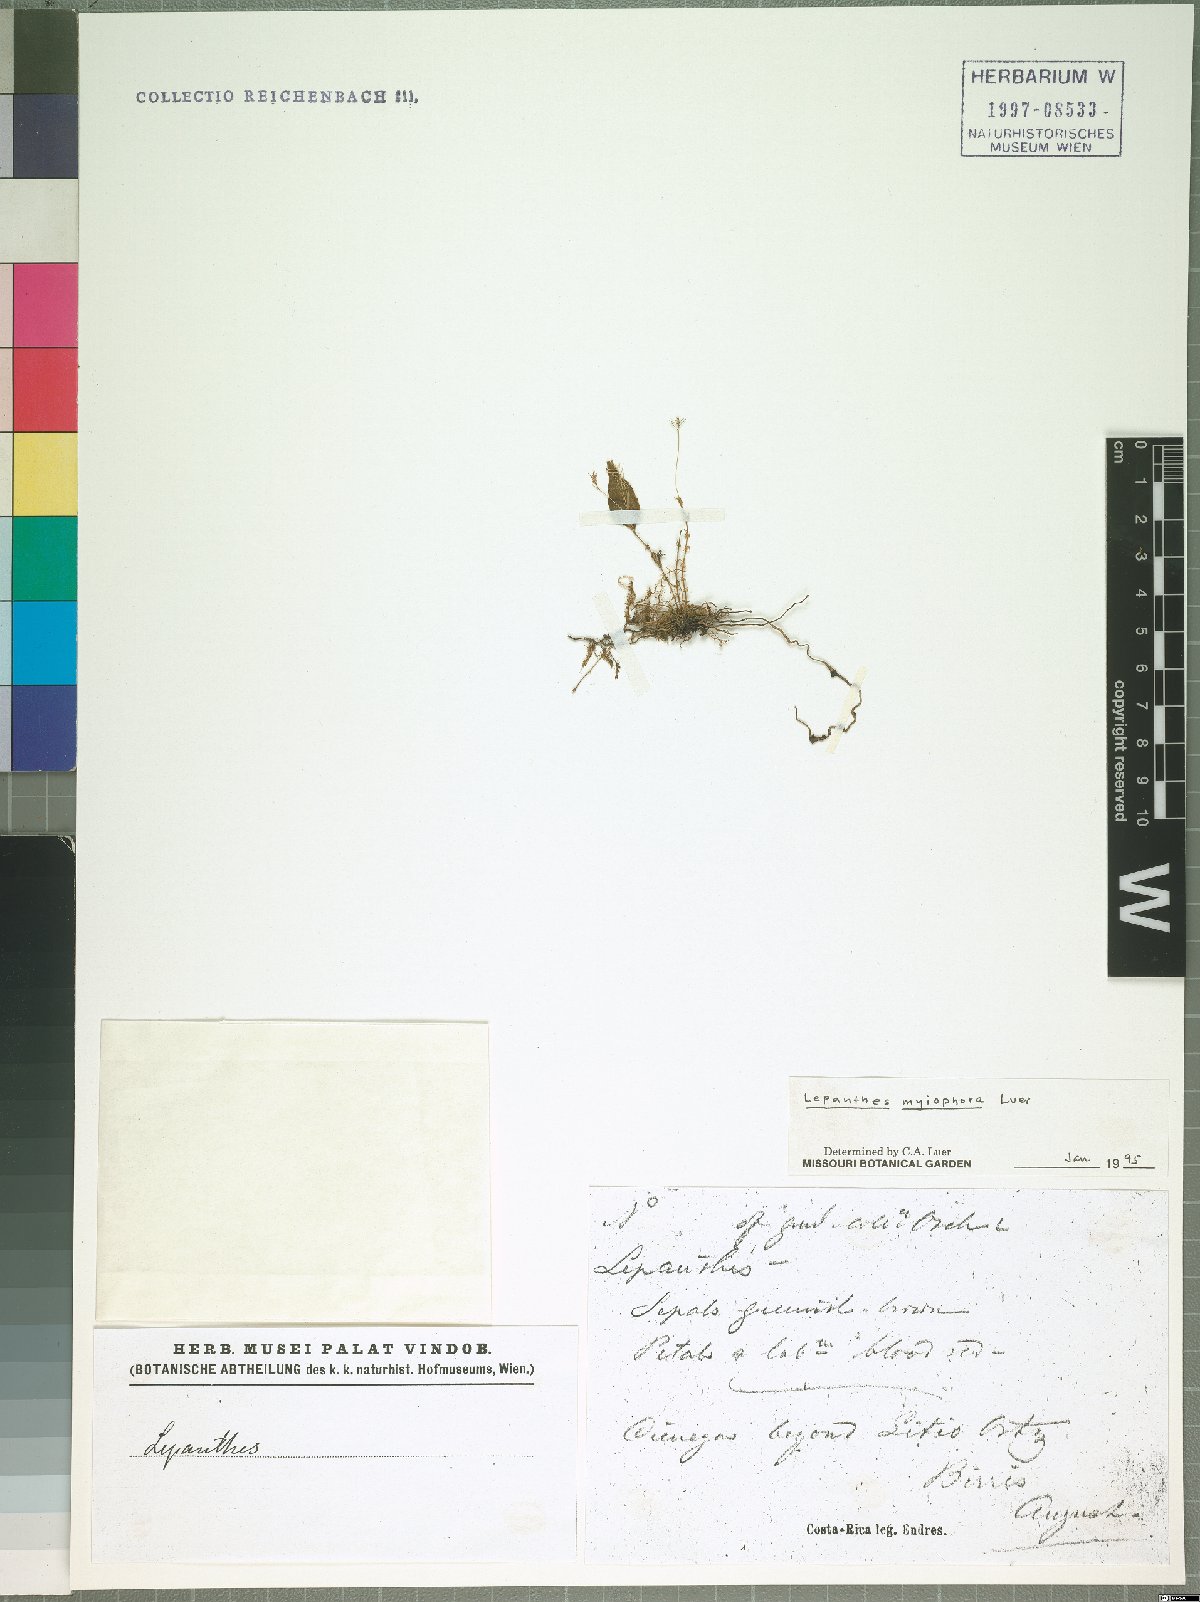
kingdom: Plantae
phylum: Tracheophyta
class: Liliopsida
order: Asparagales
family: Orchidaceae
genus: Lepanthes
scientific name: Lepanthes myiophora
